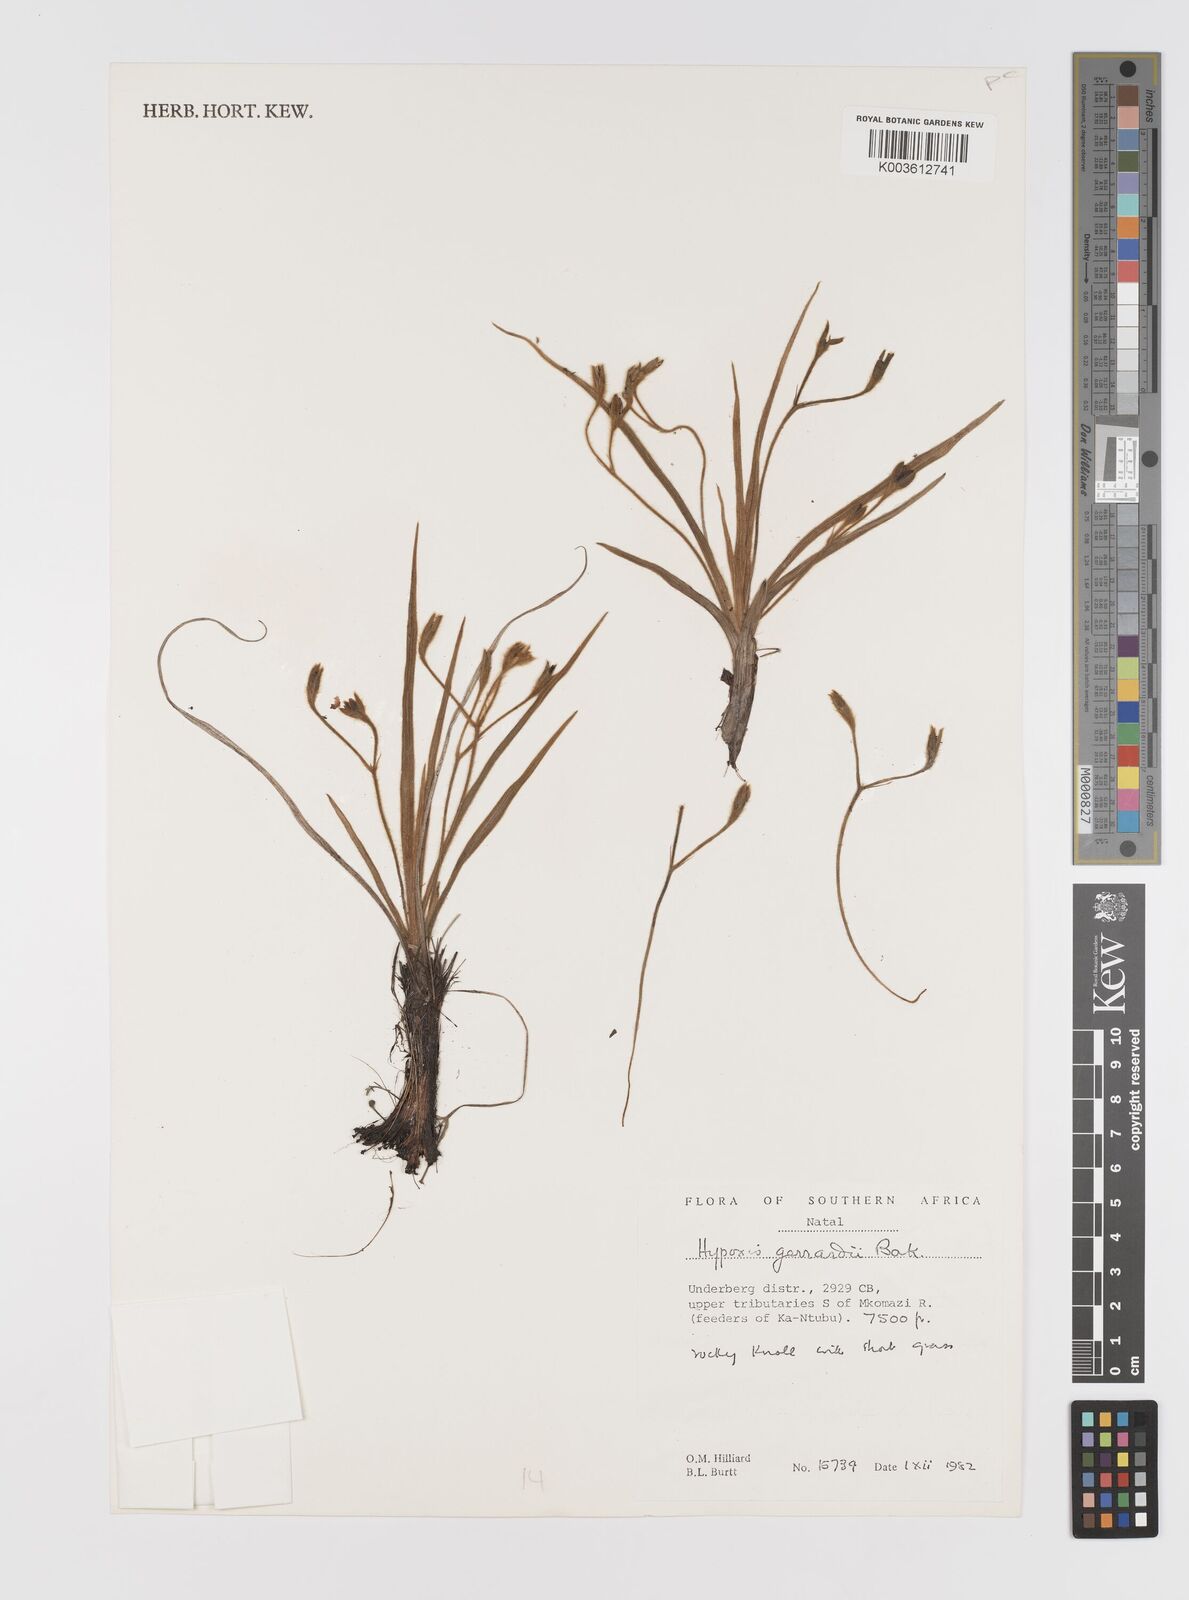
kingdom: Plantae
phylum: Tracheophyta
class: Liliopsida
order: Asparagales
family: Hypoxidaceae
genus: Hypoxis
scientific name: Hypoxis gerrardii
